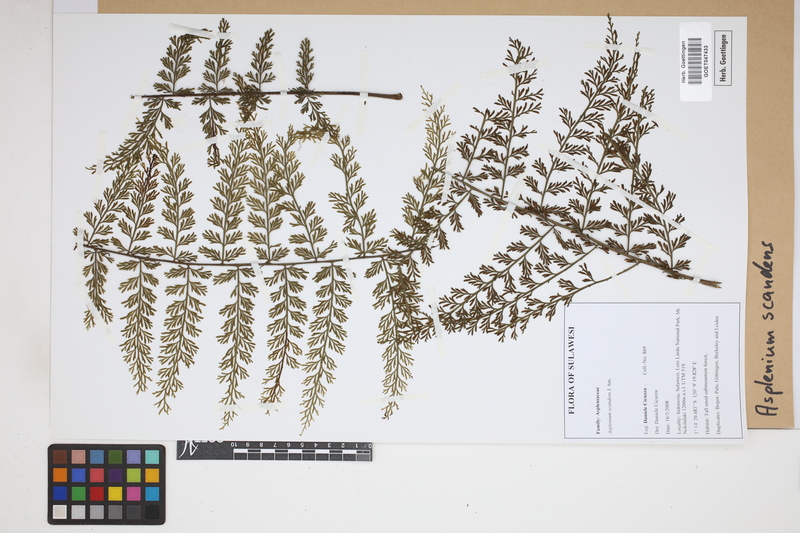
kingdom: Plantae
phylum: Tracheophyta
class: Polypodiopsida
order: Polypodiales
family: Aspleniaceae
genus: Asplenium
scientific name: Asplenium scandens
